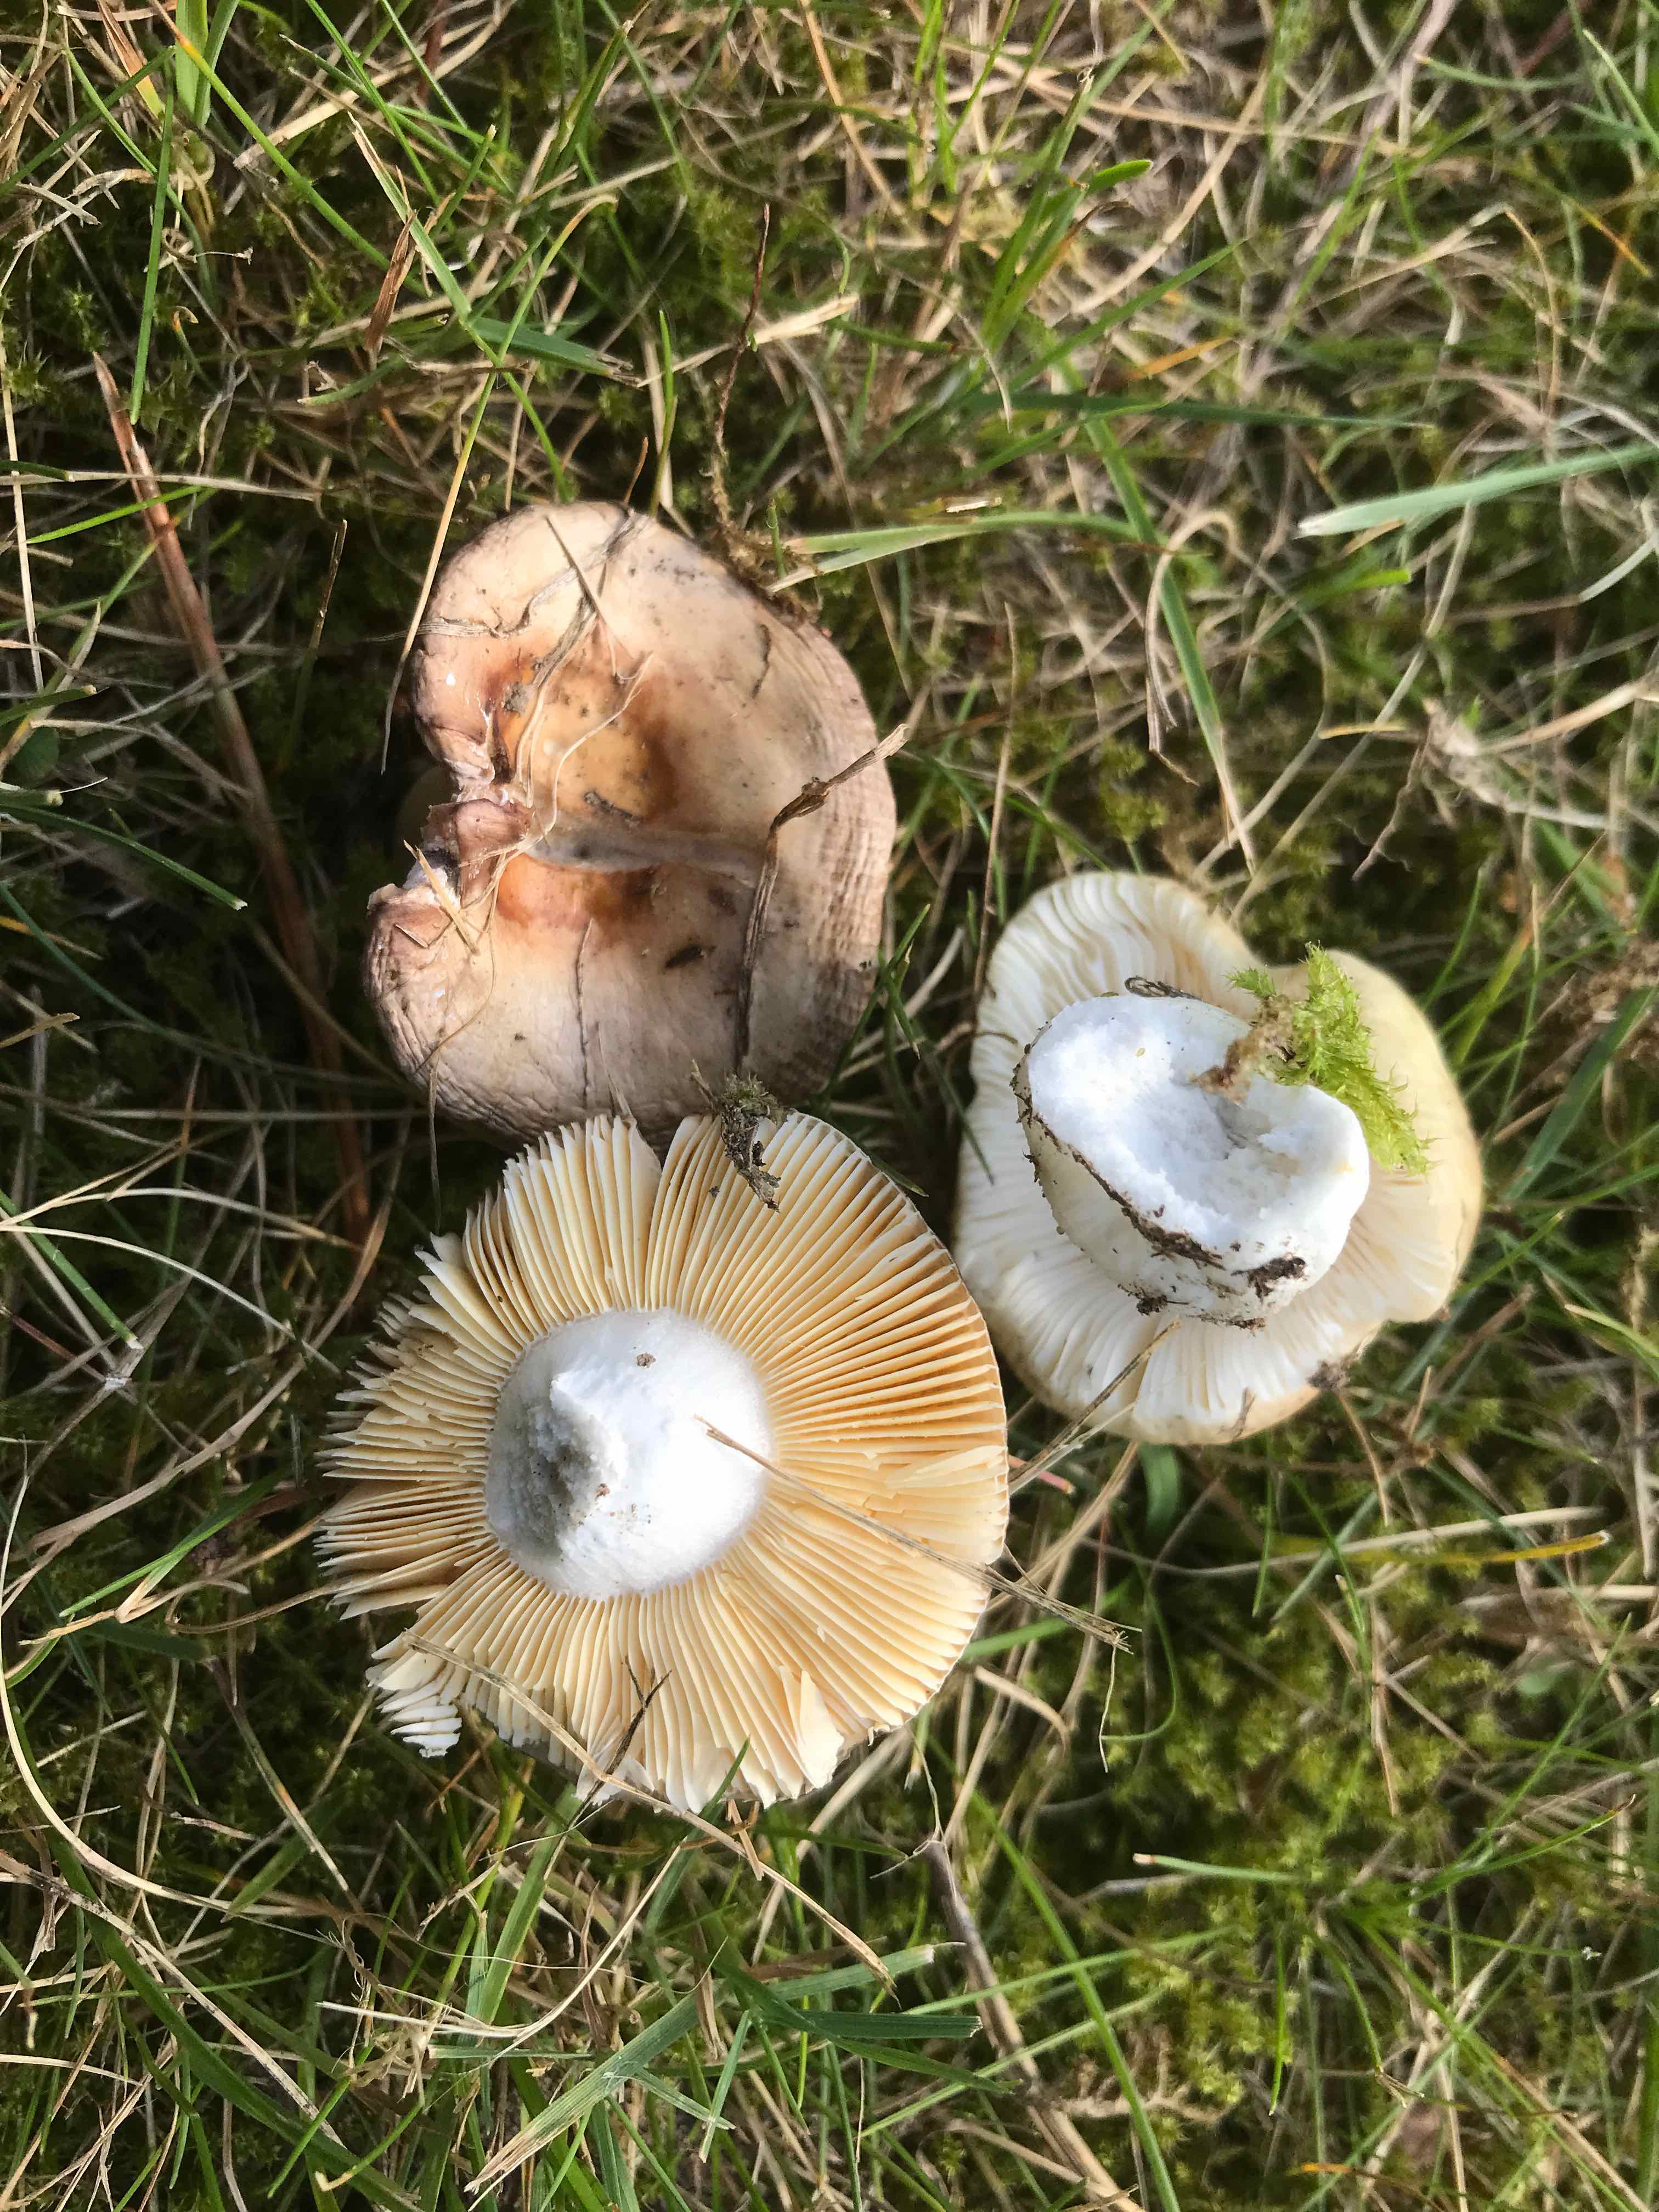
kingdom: Fungi
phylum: Basidiomycota
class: Agaricomycetes
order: Russulales
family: Russulaceae
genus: Russula
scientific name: Russula cessans
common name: fyrre-skørhat
